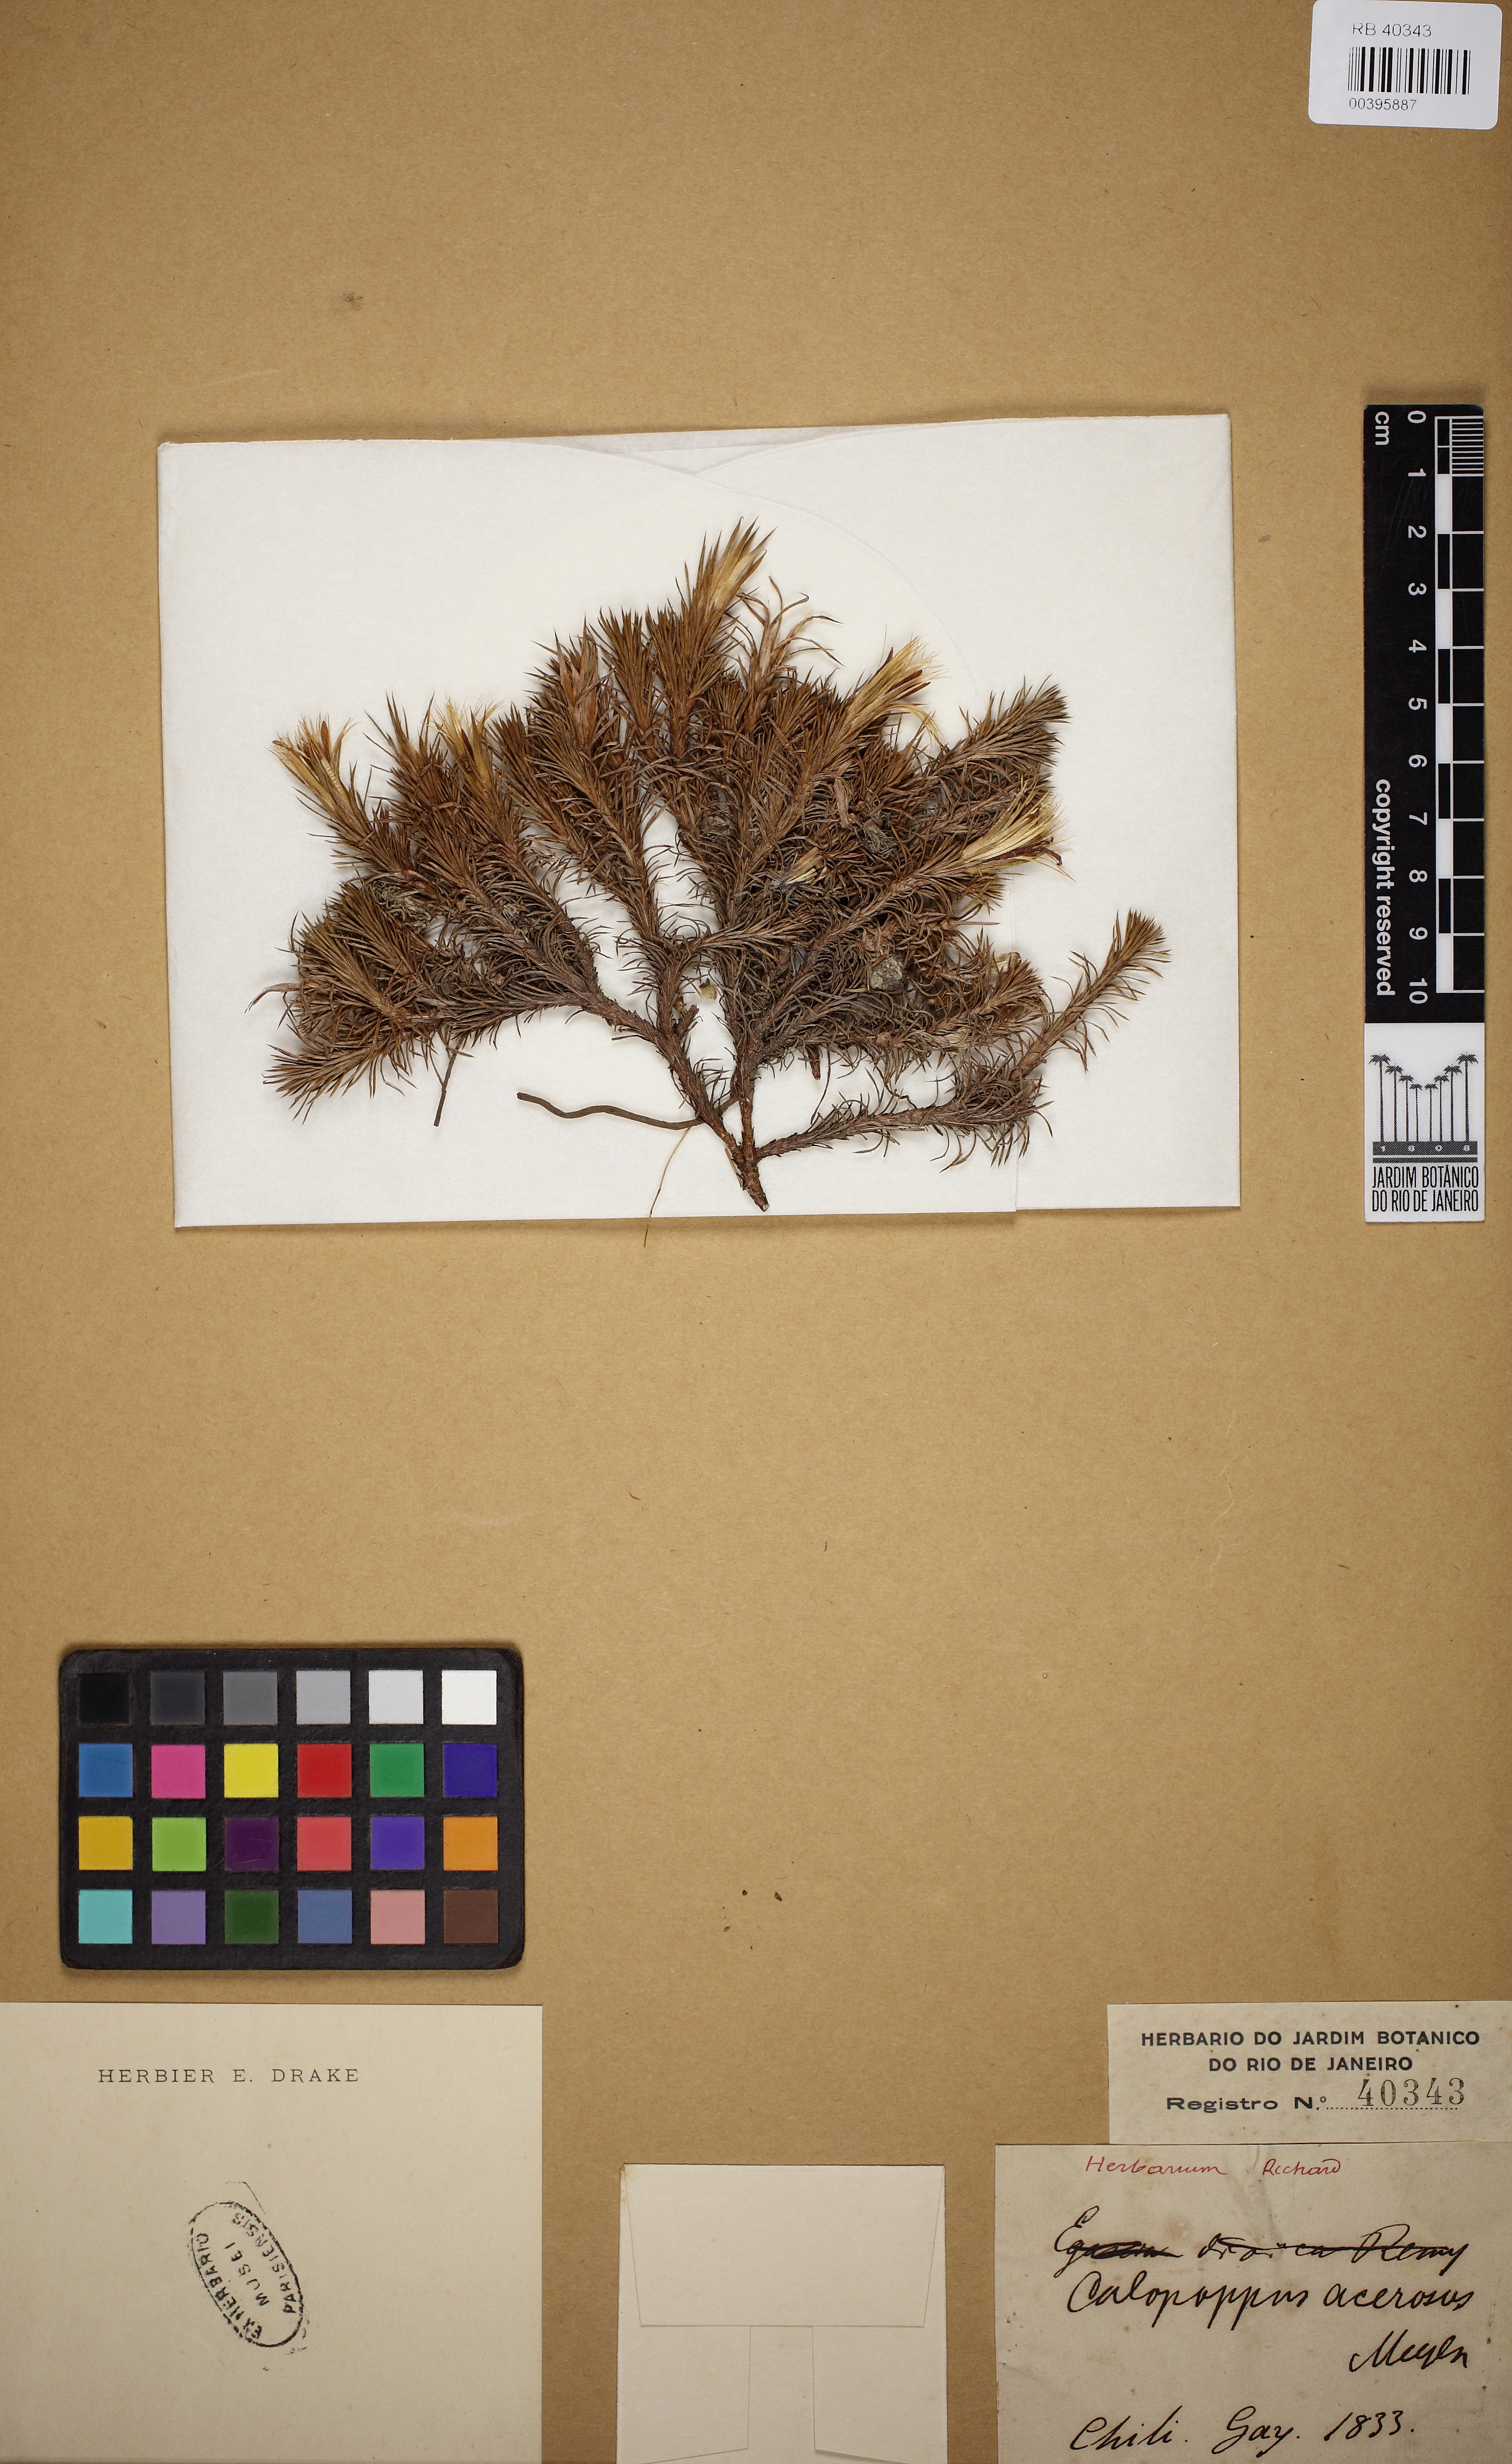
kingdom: Plantae
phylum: Tracheophyta
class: Magnoliopsida
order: Asterales
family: Asteraceae
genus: Nassauvia
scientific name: Nassauvia acerosa
